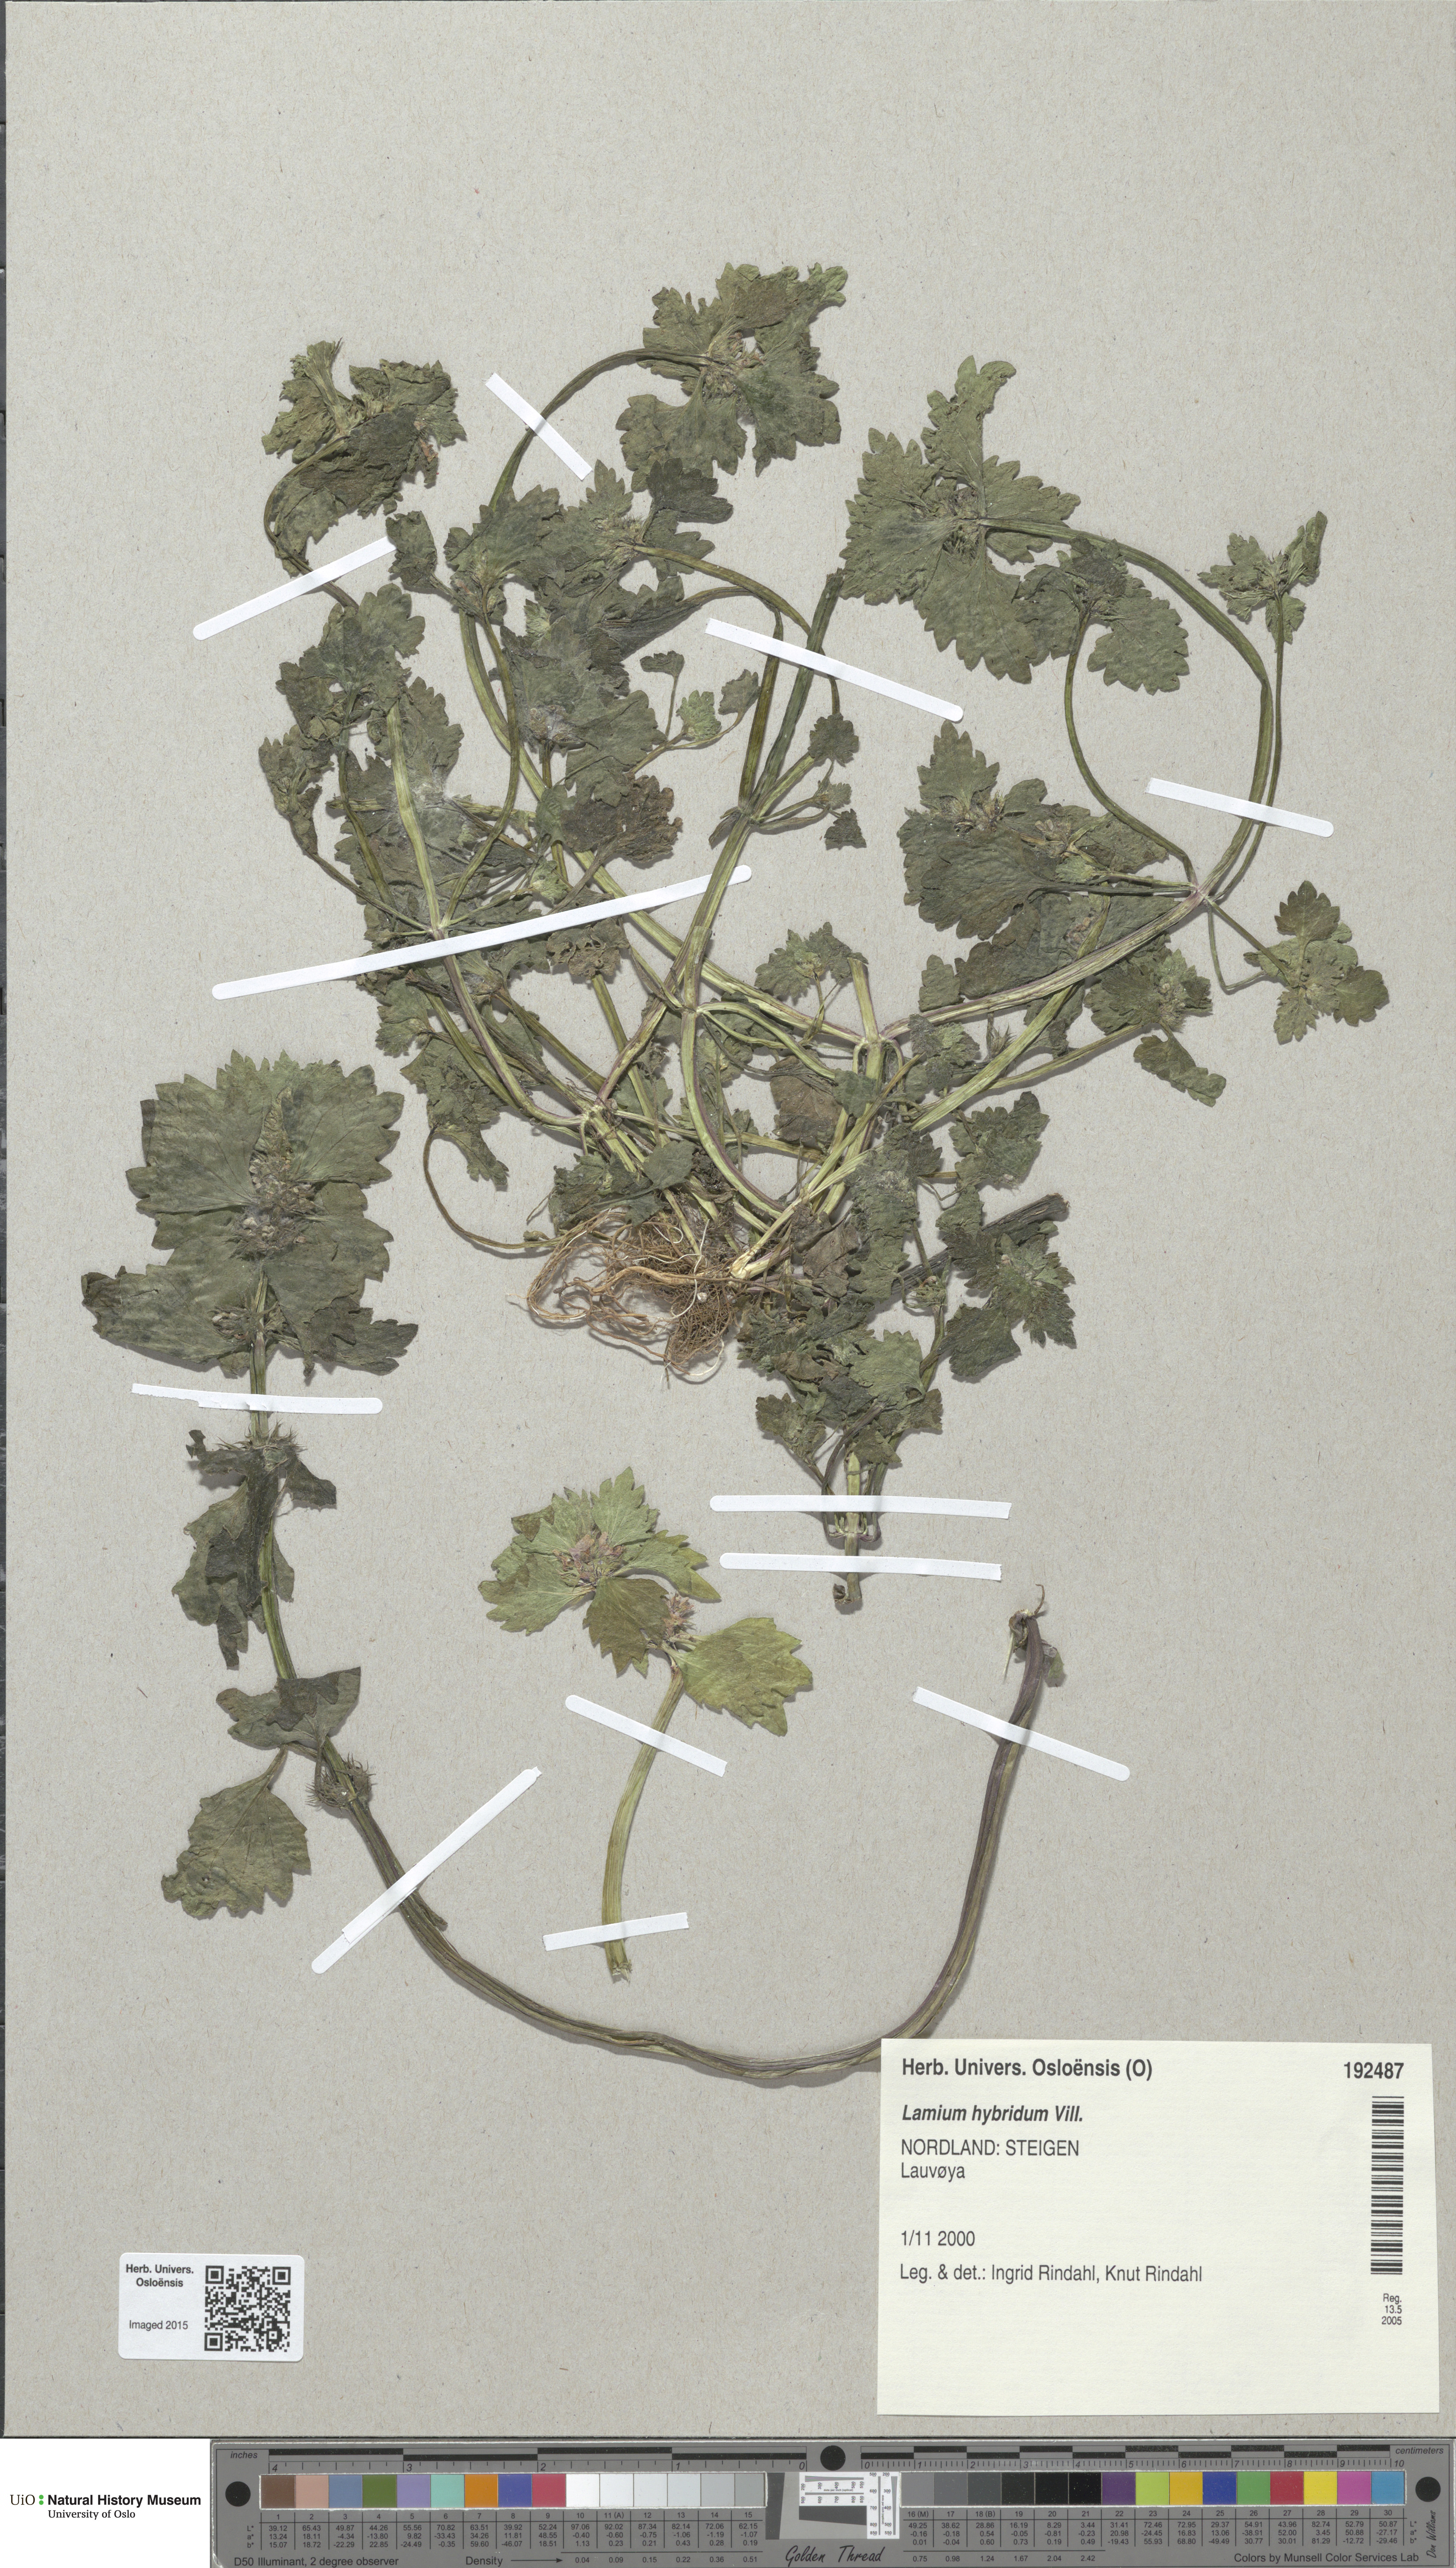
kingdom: Plantae
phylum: Tracheophyta
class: Magnoliopsida
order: Lamiales
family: Lamiaceae
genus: Lamium
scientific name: Lamium hybridum
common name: Cut-leaved dead-nettle
